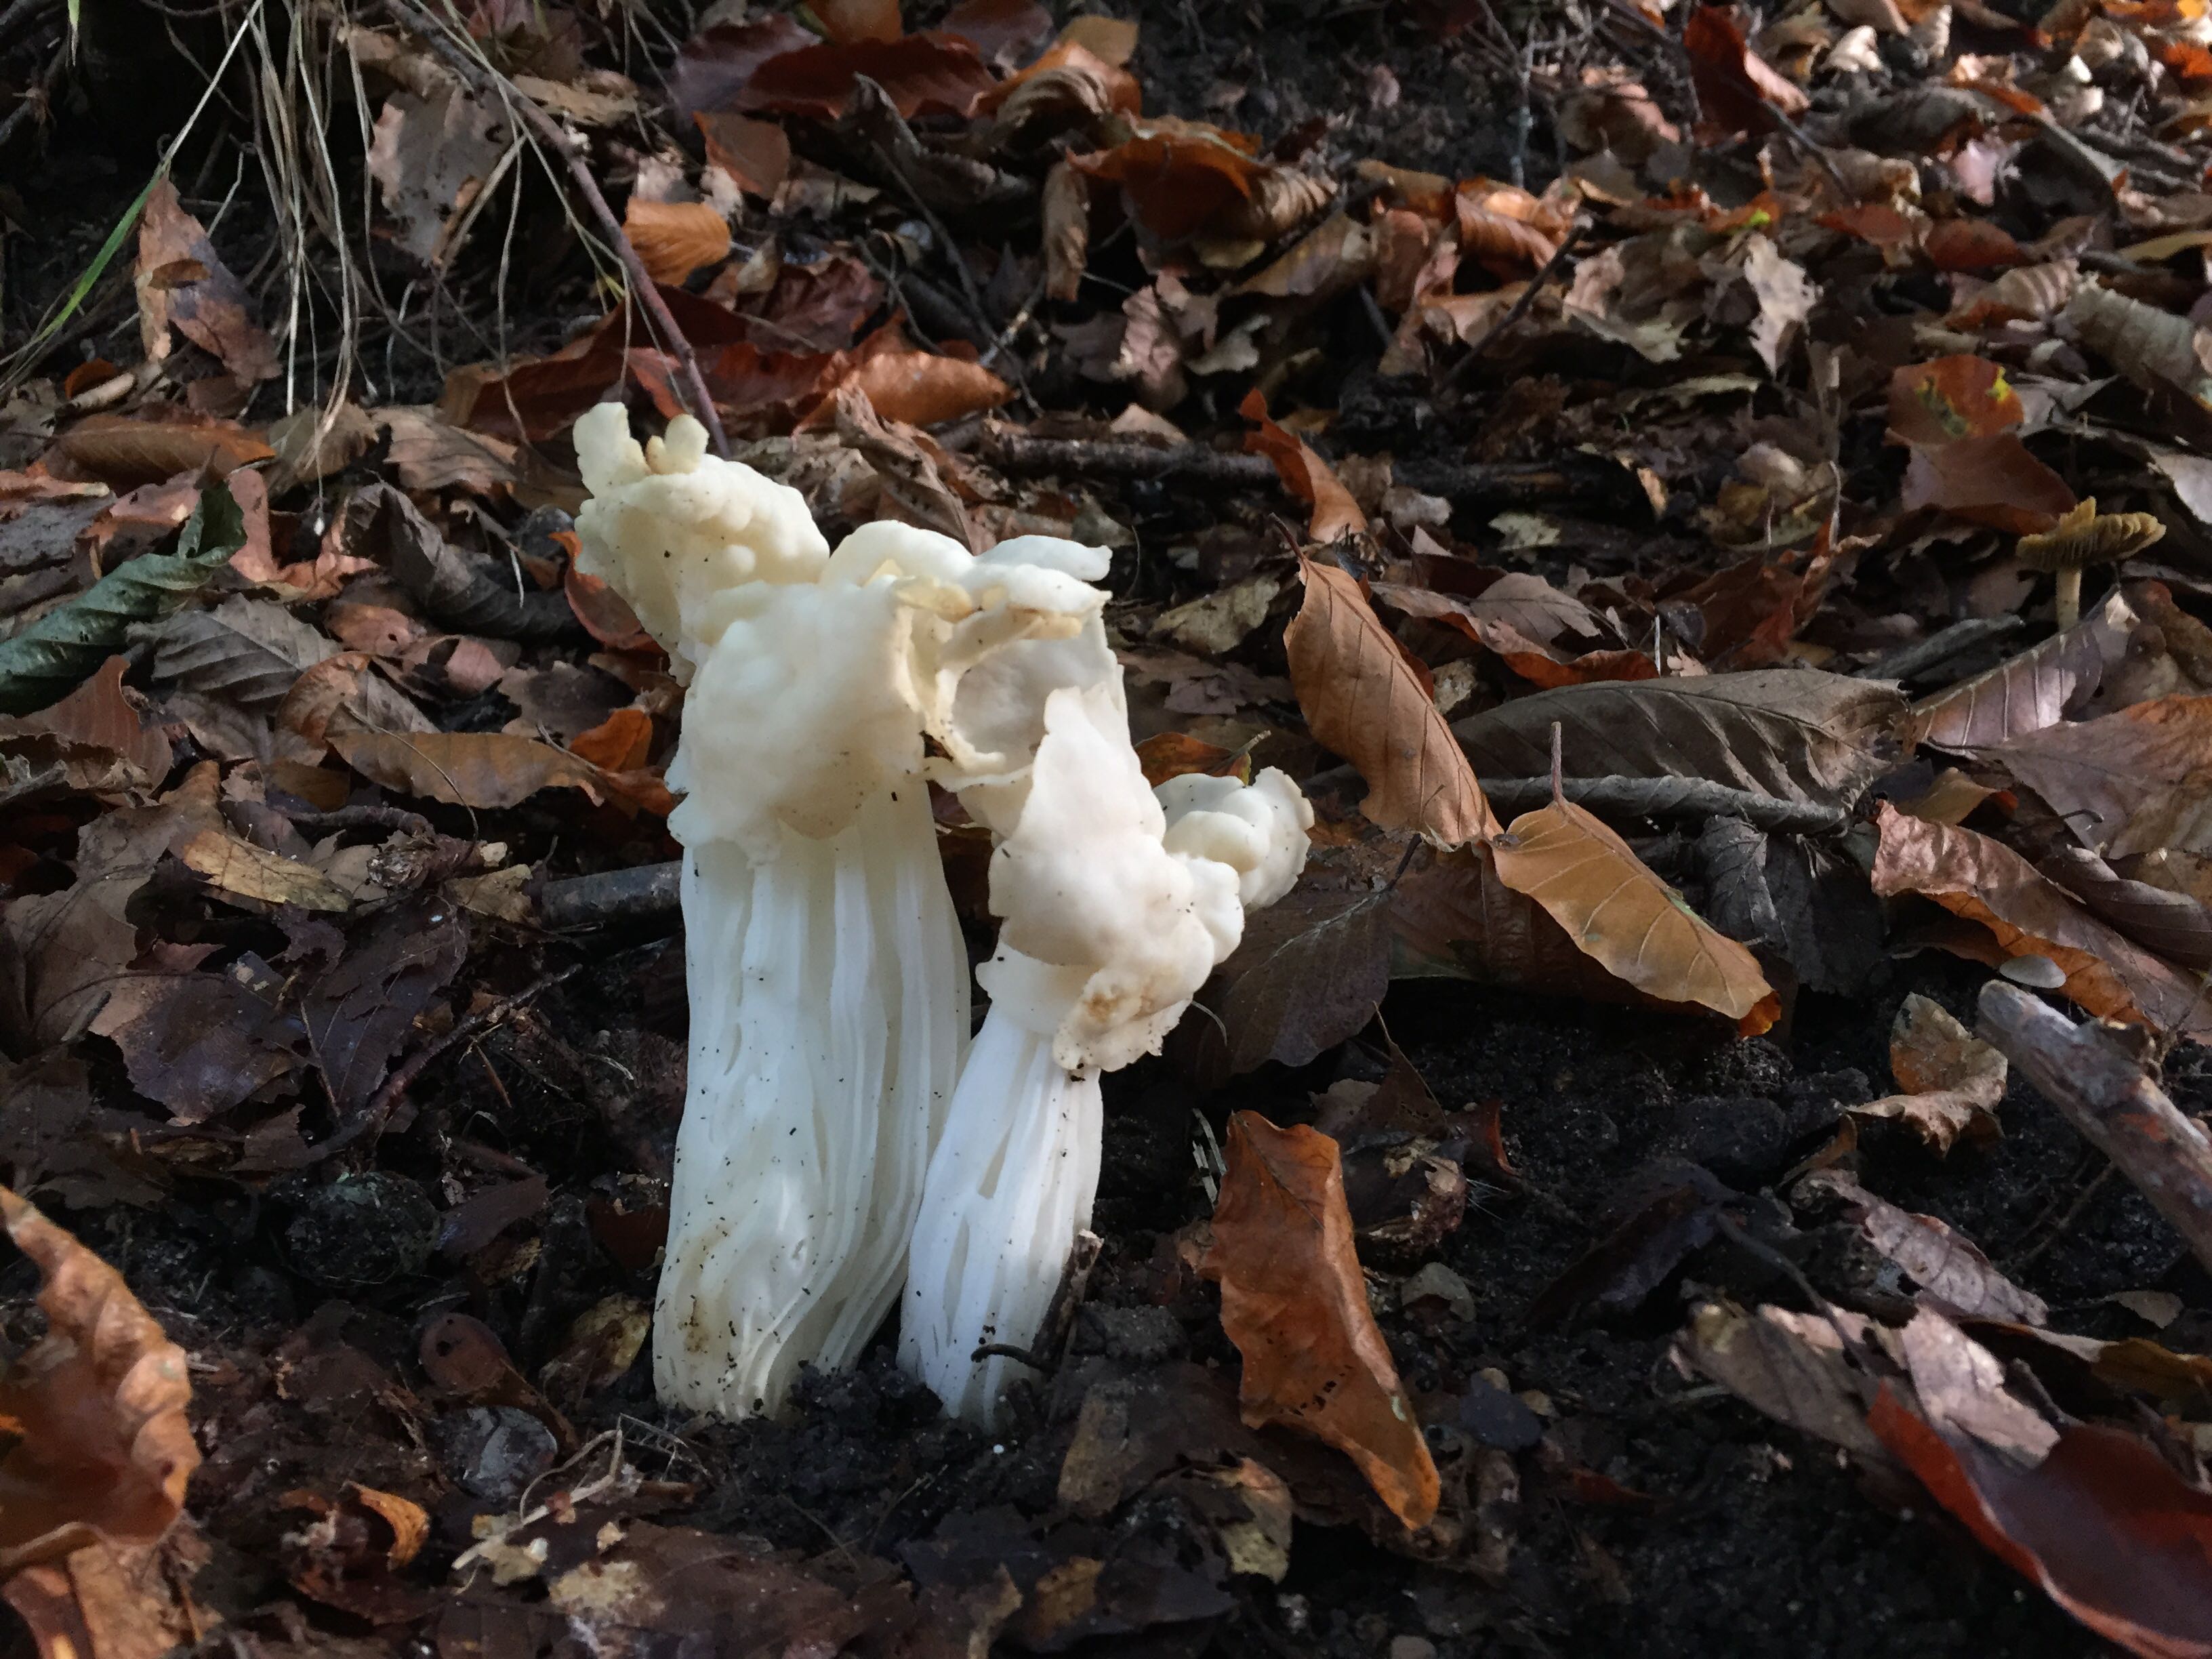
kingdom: Fungi
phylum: Ascomycota
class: Pezizomycetes
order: Pezizales
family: Helvellaceae
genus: Helvella
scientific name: Helvella crispa
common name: kruset foldhat
